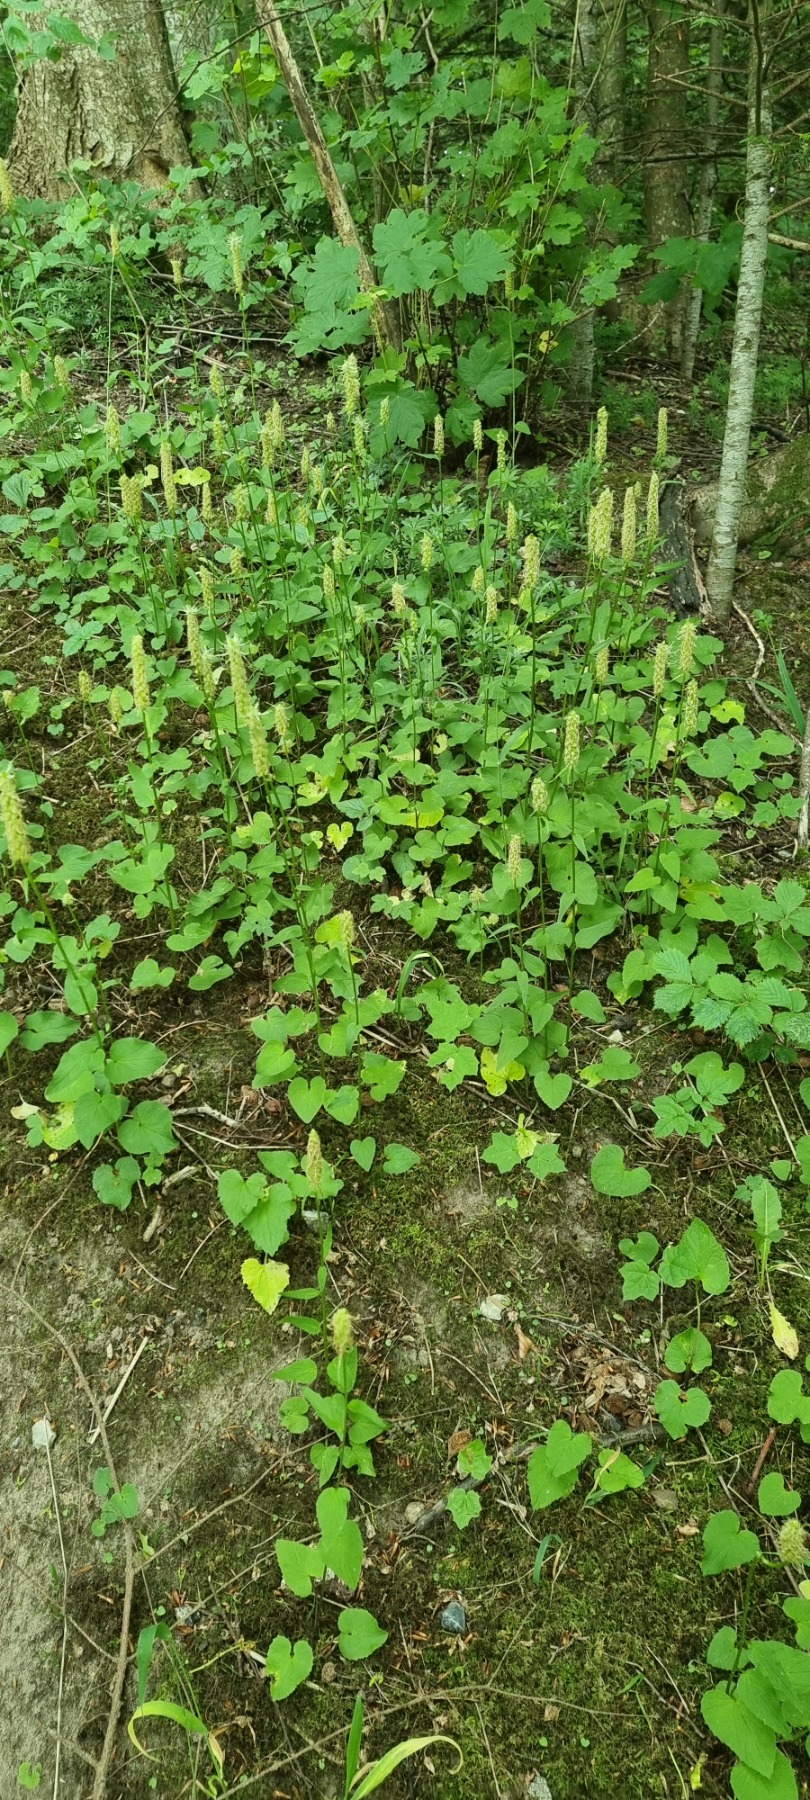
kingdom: Plantae
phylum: Tracheophyta
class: Magnoliopsida
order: Asterales
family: Campanulaceae
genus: Phyteuma
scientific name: Phyteuma spicatum
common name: Aks-rapunsel
